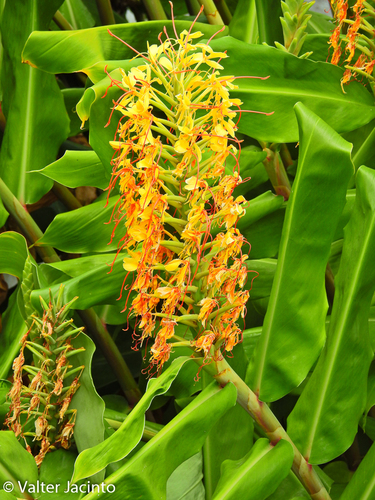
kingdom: Plantae
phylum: Tracheophyta
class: Liliopsida
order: Zingiberales
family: Zingiberaceae
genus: Hedychium
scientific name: Hedychium gardnerianum
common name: Himalayan ginger
